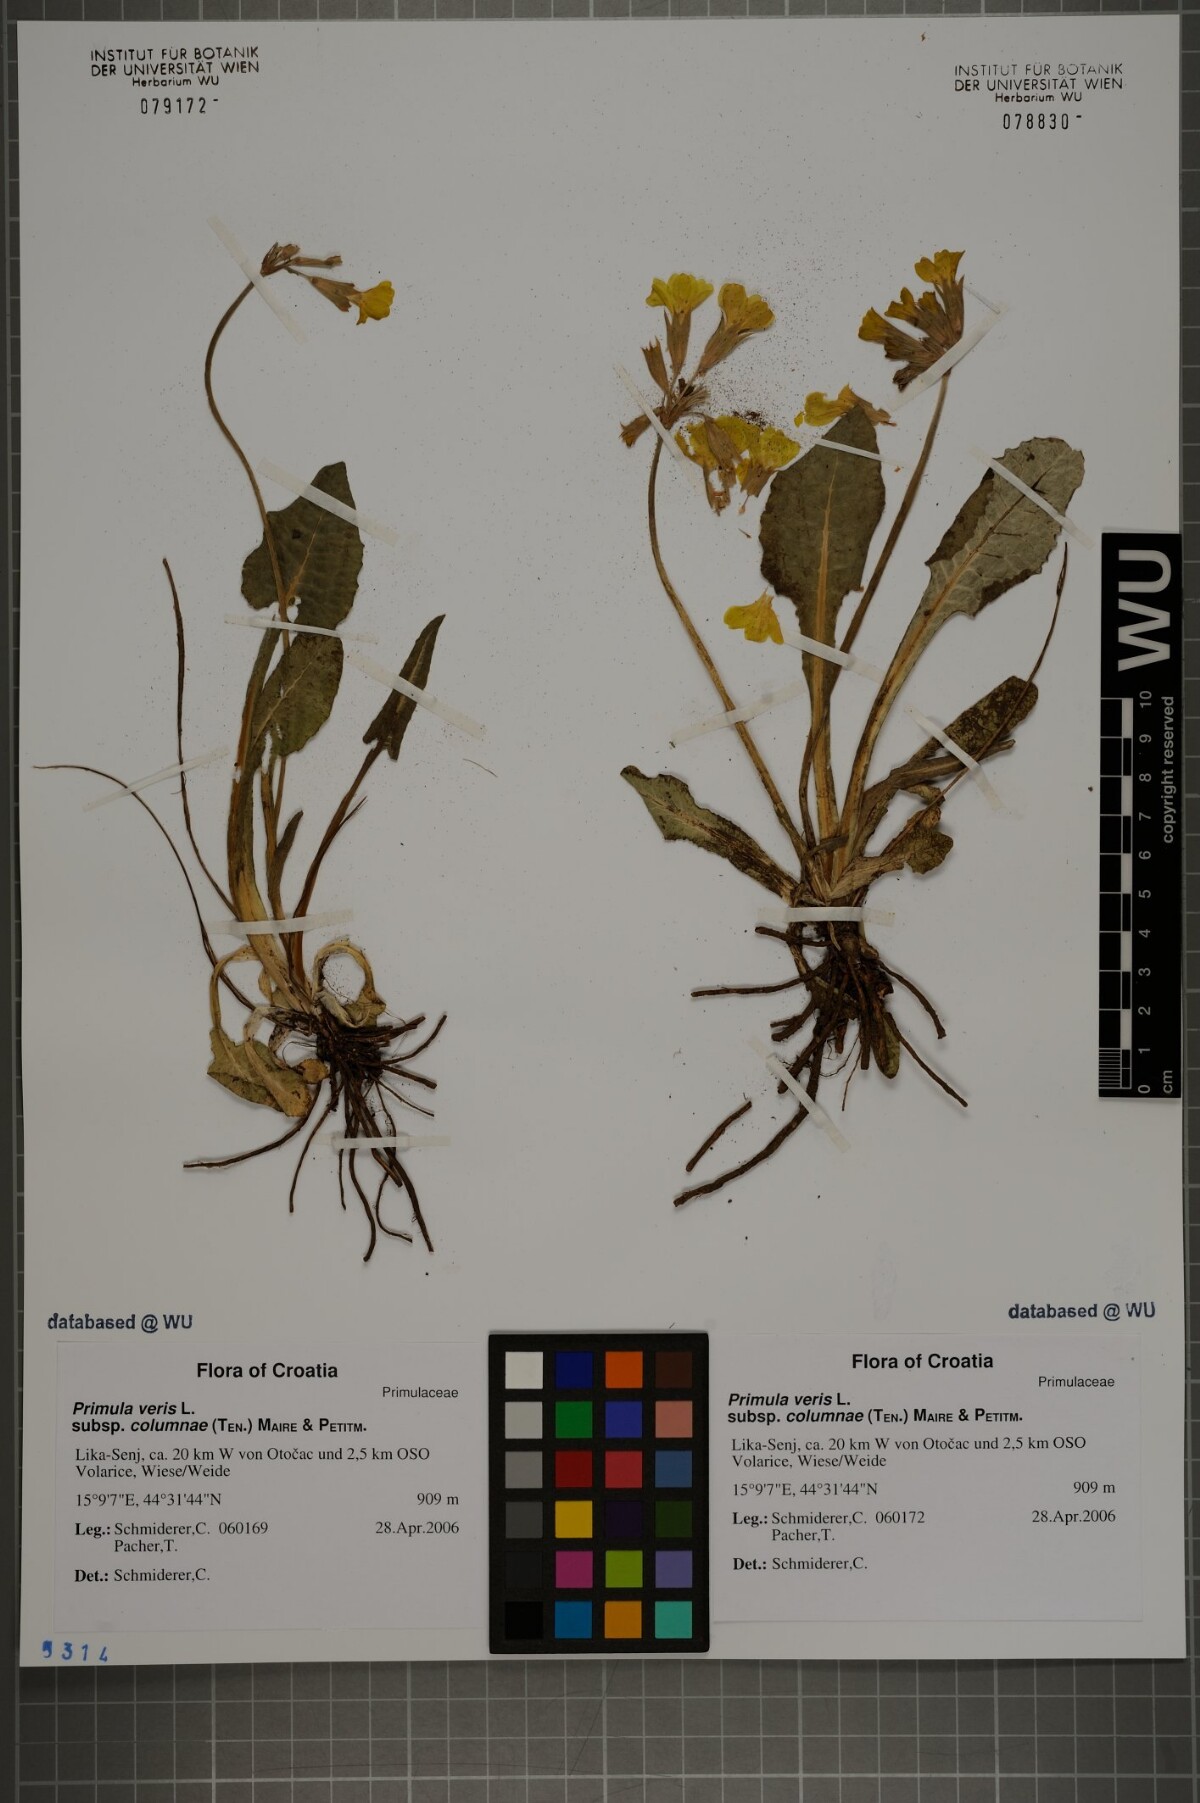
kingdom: Plantae
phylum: Tracheophyta
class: Magnoliopsida
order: Ericales
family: Primulaceae
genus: Primula
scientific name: Primula veris
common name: Cowslip
